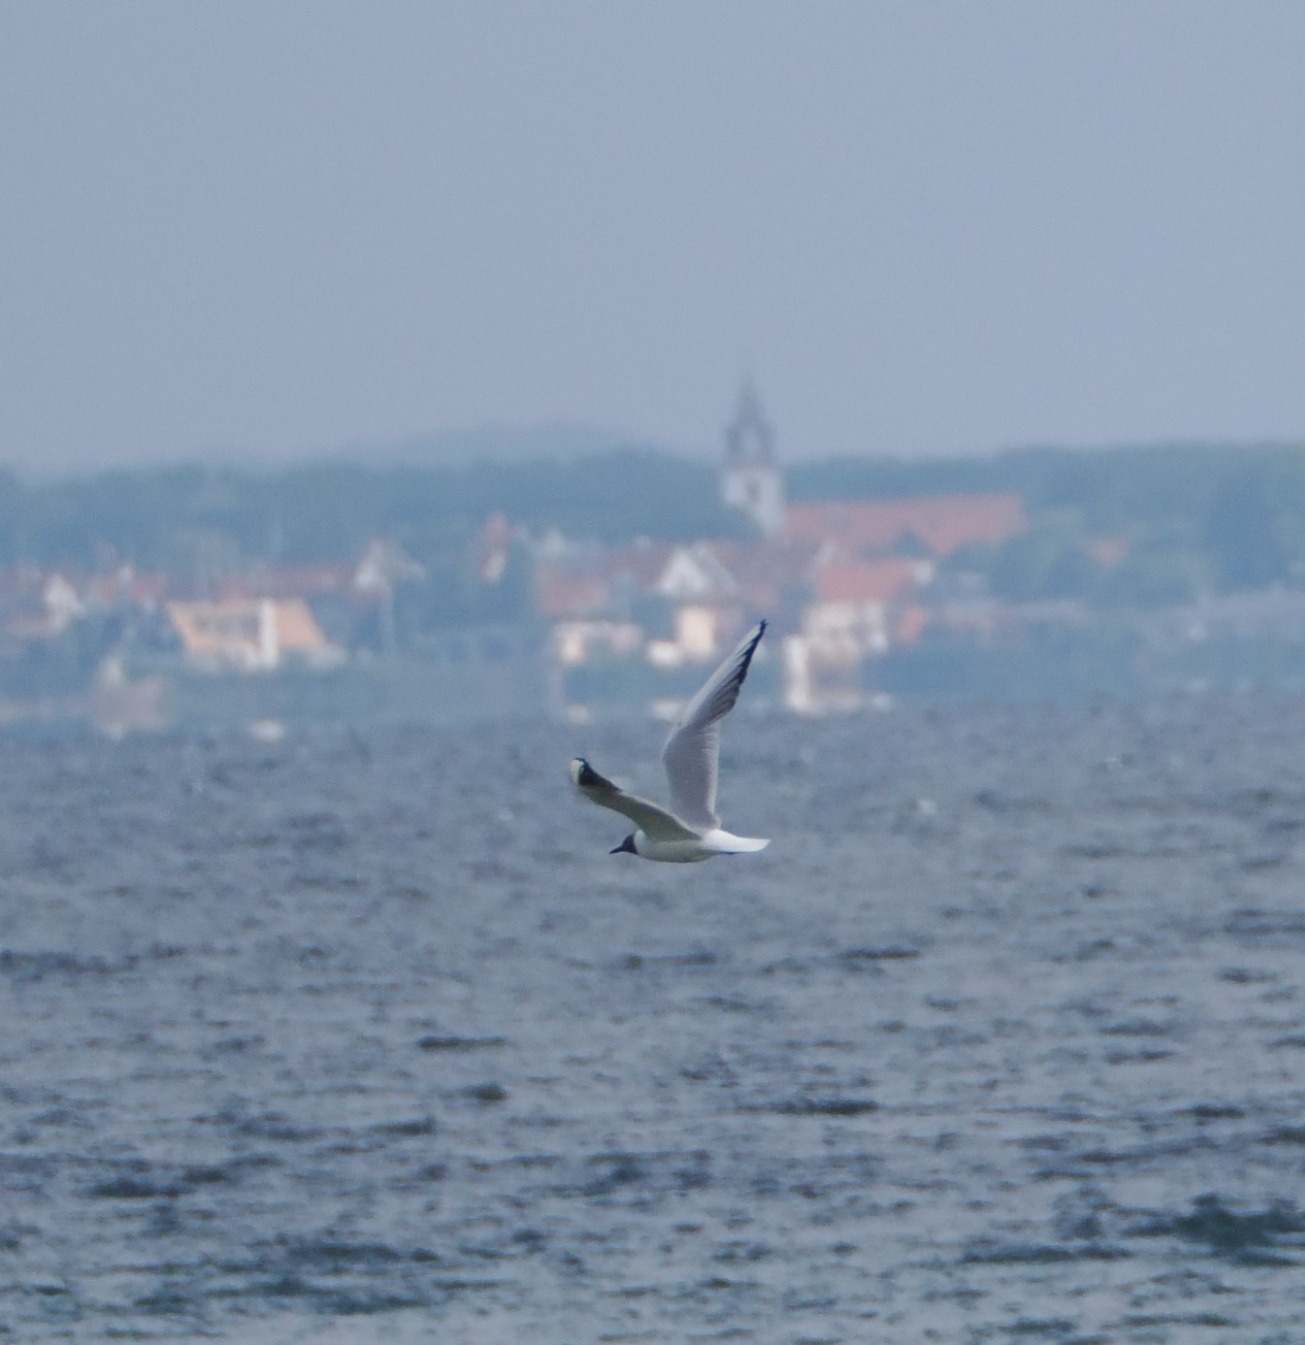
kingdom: Animalia
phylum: Chordata
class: Aves
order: Charadriiformes
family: Laridae
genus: Chroicocephalus
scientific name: Chroicocephalus ridibundus
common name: Hættemåge
